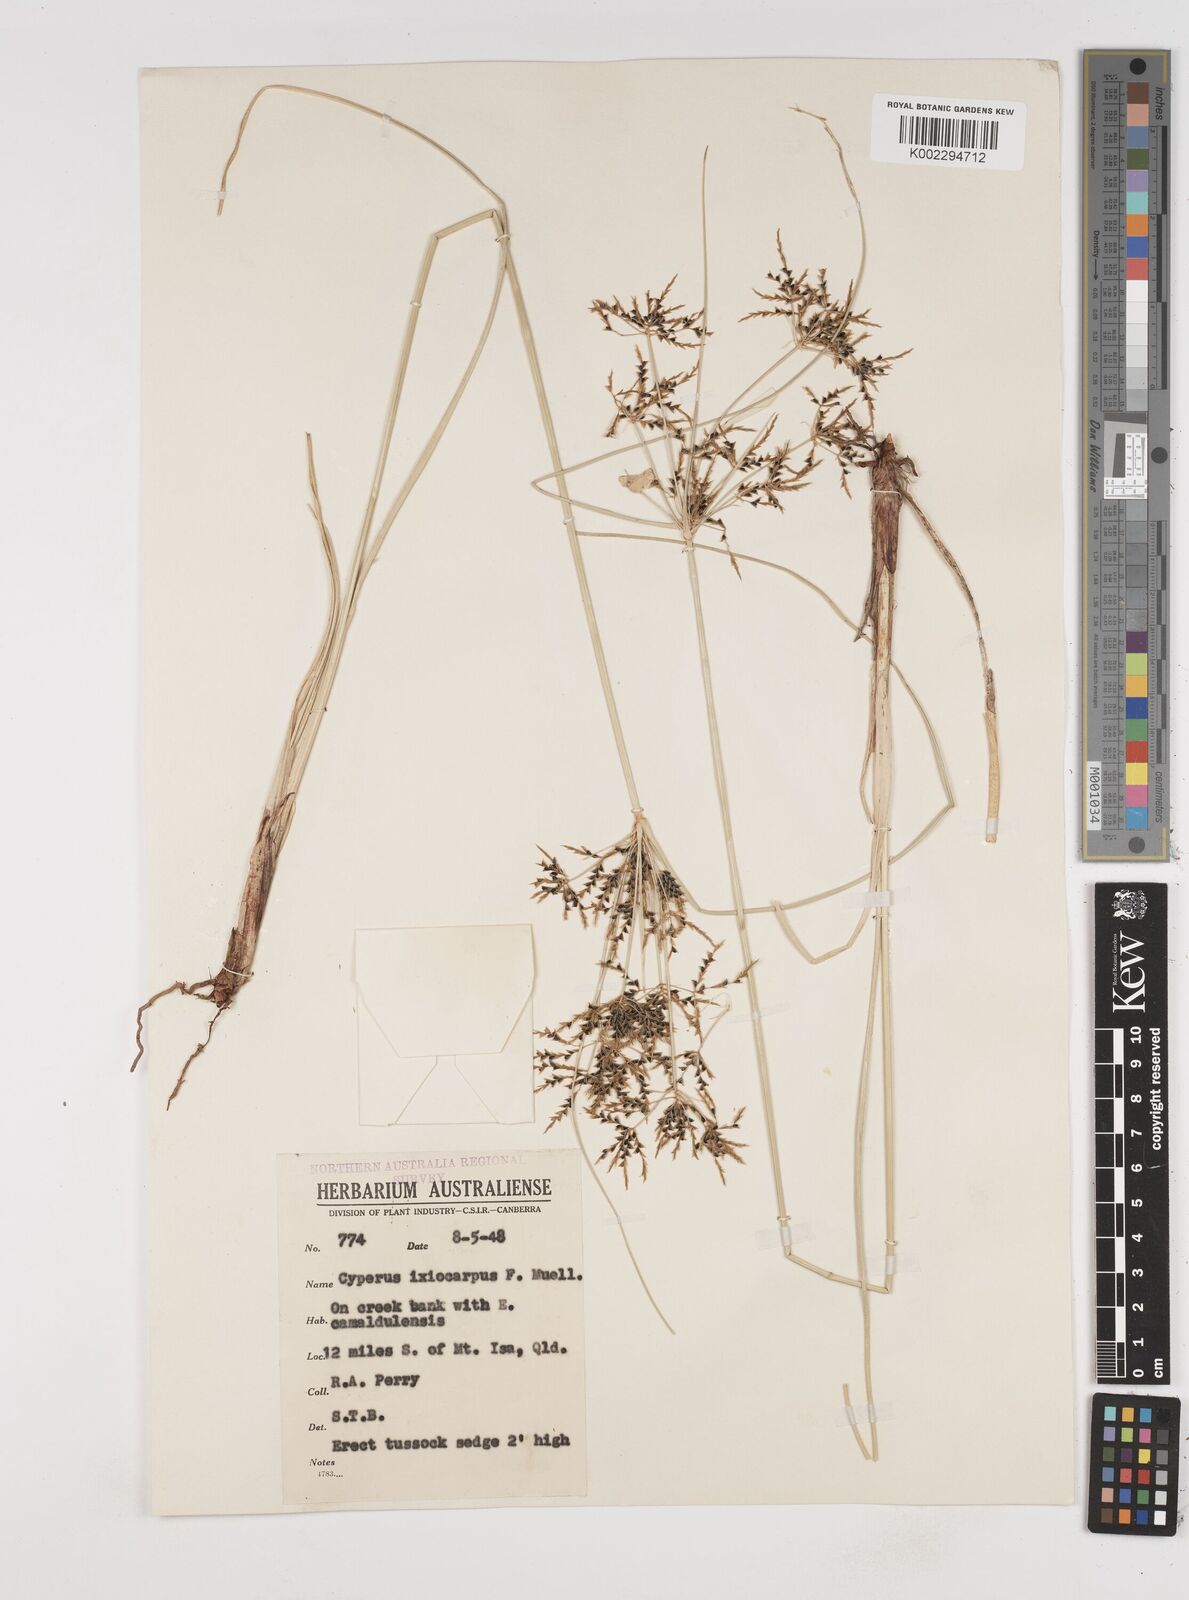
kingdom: Plantae
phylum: Tracheophyta
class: Liliopsida
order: Poales
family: Cyperaceae
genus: Cyperus
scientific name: Cyperus ixiocarpus
